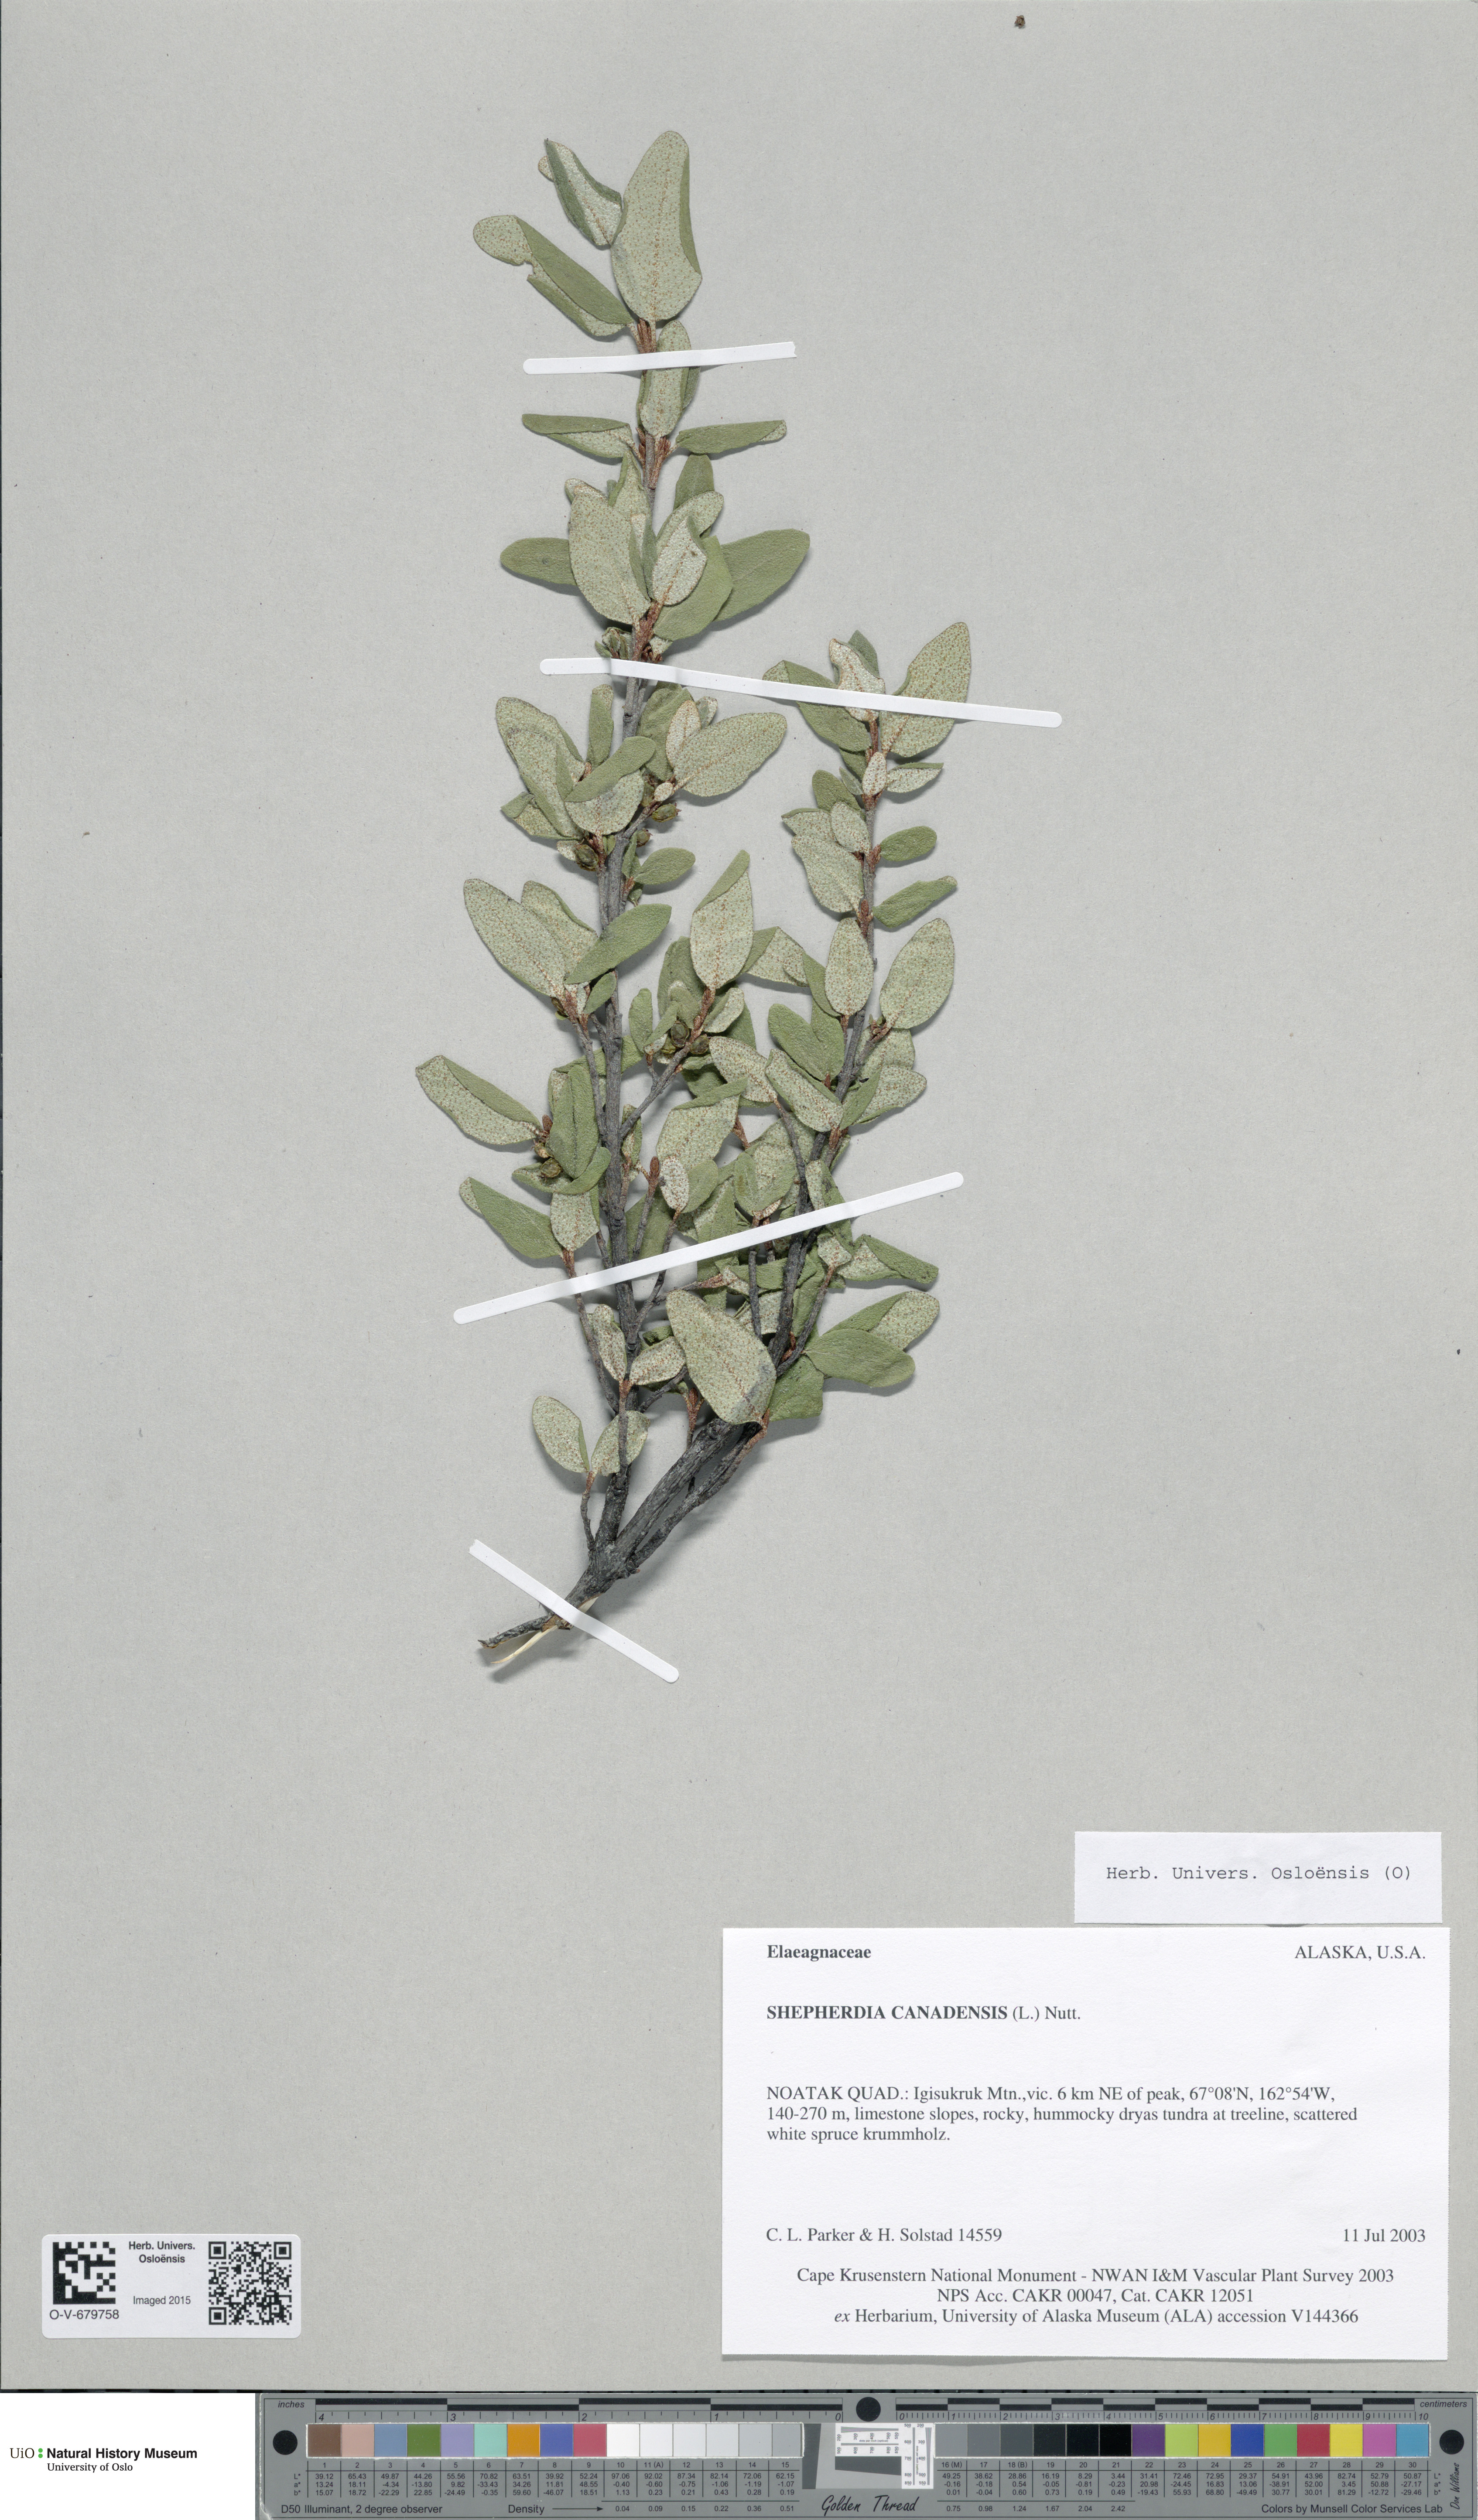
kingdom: Plantae
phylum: Tracheophyta
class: Magnoliopsida
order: Rosales
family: Elaeagnaceae
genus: Shepherdia
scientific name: Shepherdia canadensis
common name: Soapberry
